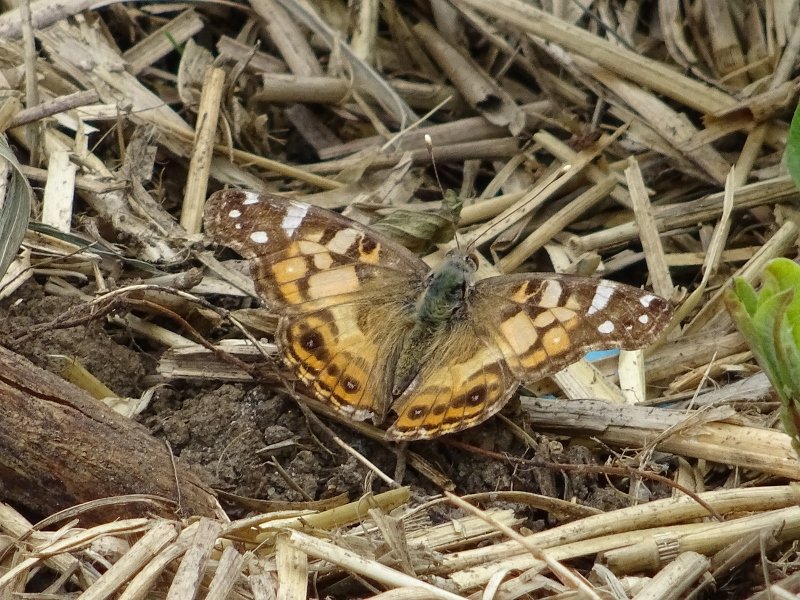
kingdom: Animalia
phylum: Arthropoda
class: Insecta
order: Lepidoptera
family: Nymphalidae
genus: Vanessa
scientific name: Vanessa virginiensis
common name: American Lady
